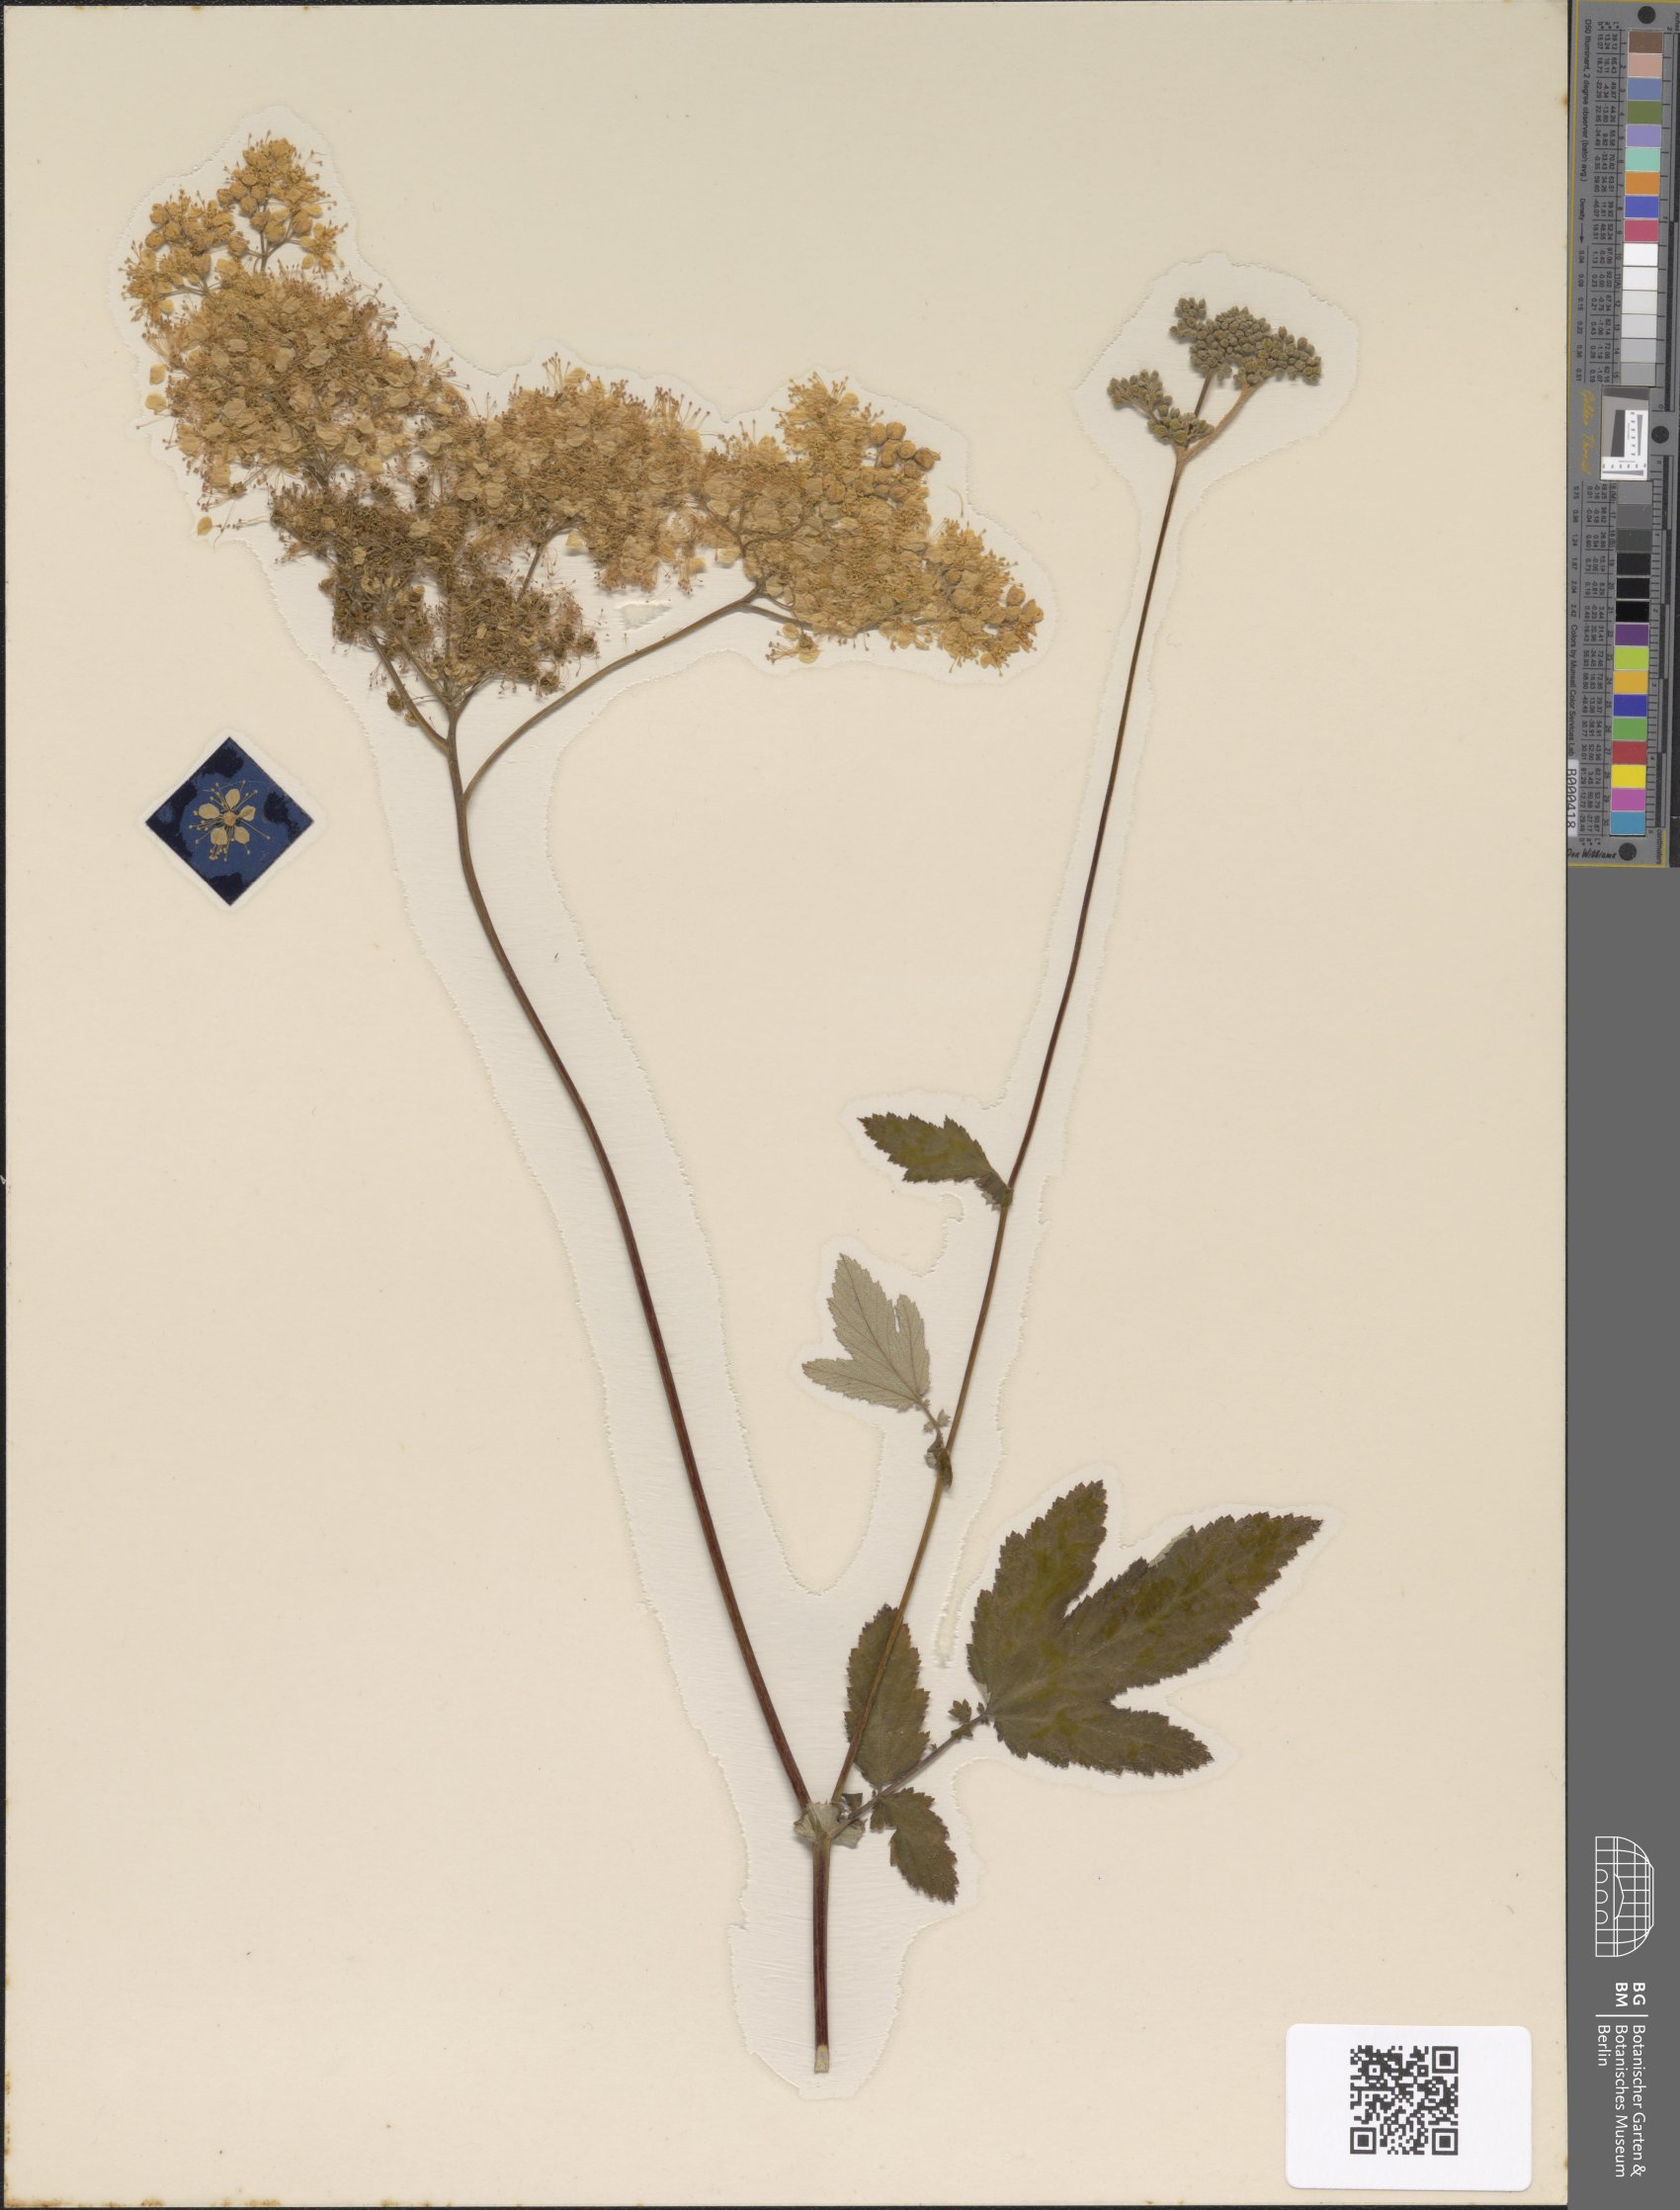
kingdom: Plantae
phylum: Tracheophyta
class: Magnoliopsida
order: Rosales
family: Rosaceae
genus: Filipendula
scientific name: Filipendula ulmaria
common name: Meadowsweet
